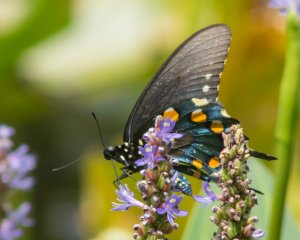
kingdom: Animalia
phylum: Arthropoda
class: Insecta
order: Lepidoptera
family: Papilionidae
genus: Battus
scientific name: Battus philenor
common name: Pipevine Swallowtail
